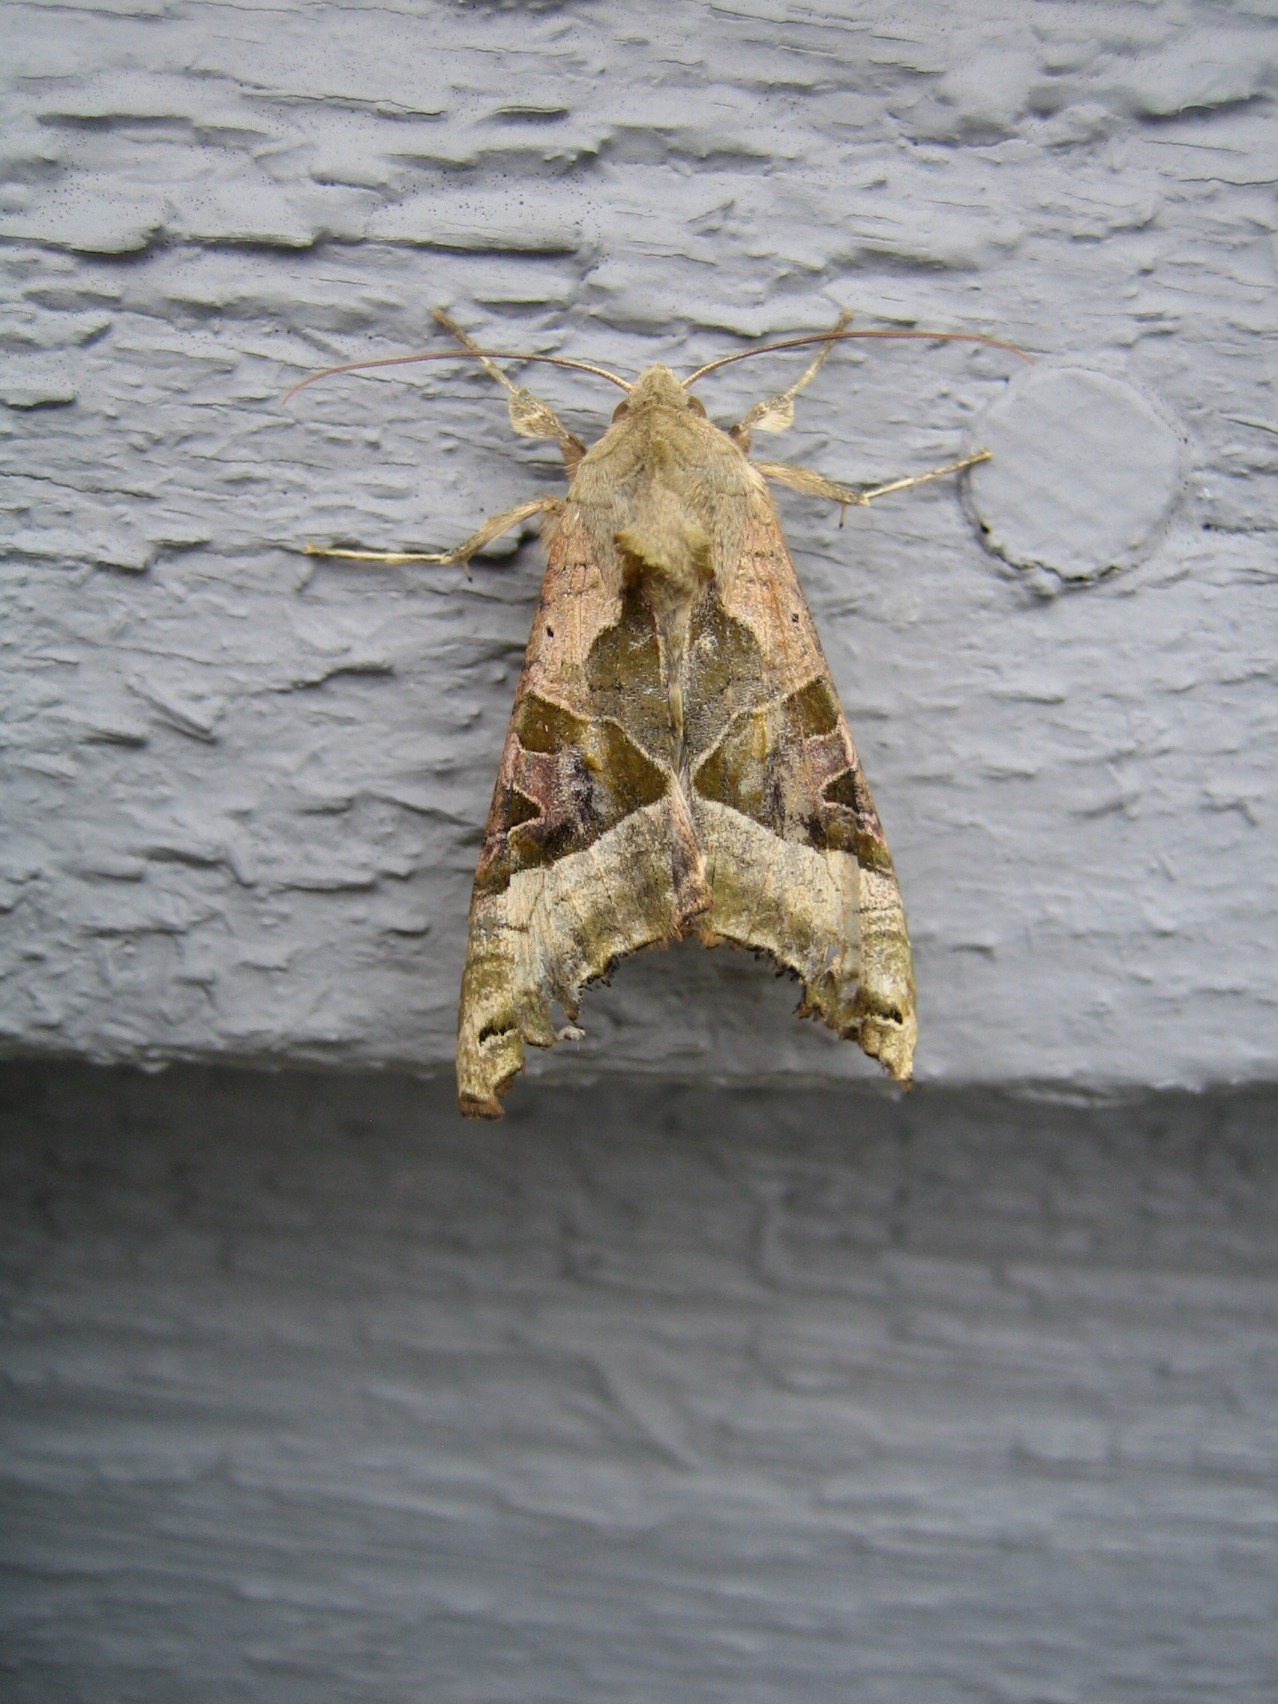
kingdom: Animalia
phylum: Arthropoda
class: Insecta
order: Lepidoptera
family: Noctuidae
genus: Phlogophora
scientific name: Phlogophora meticulosa
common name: Agatugle
